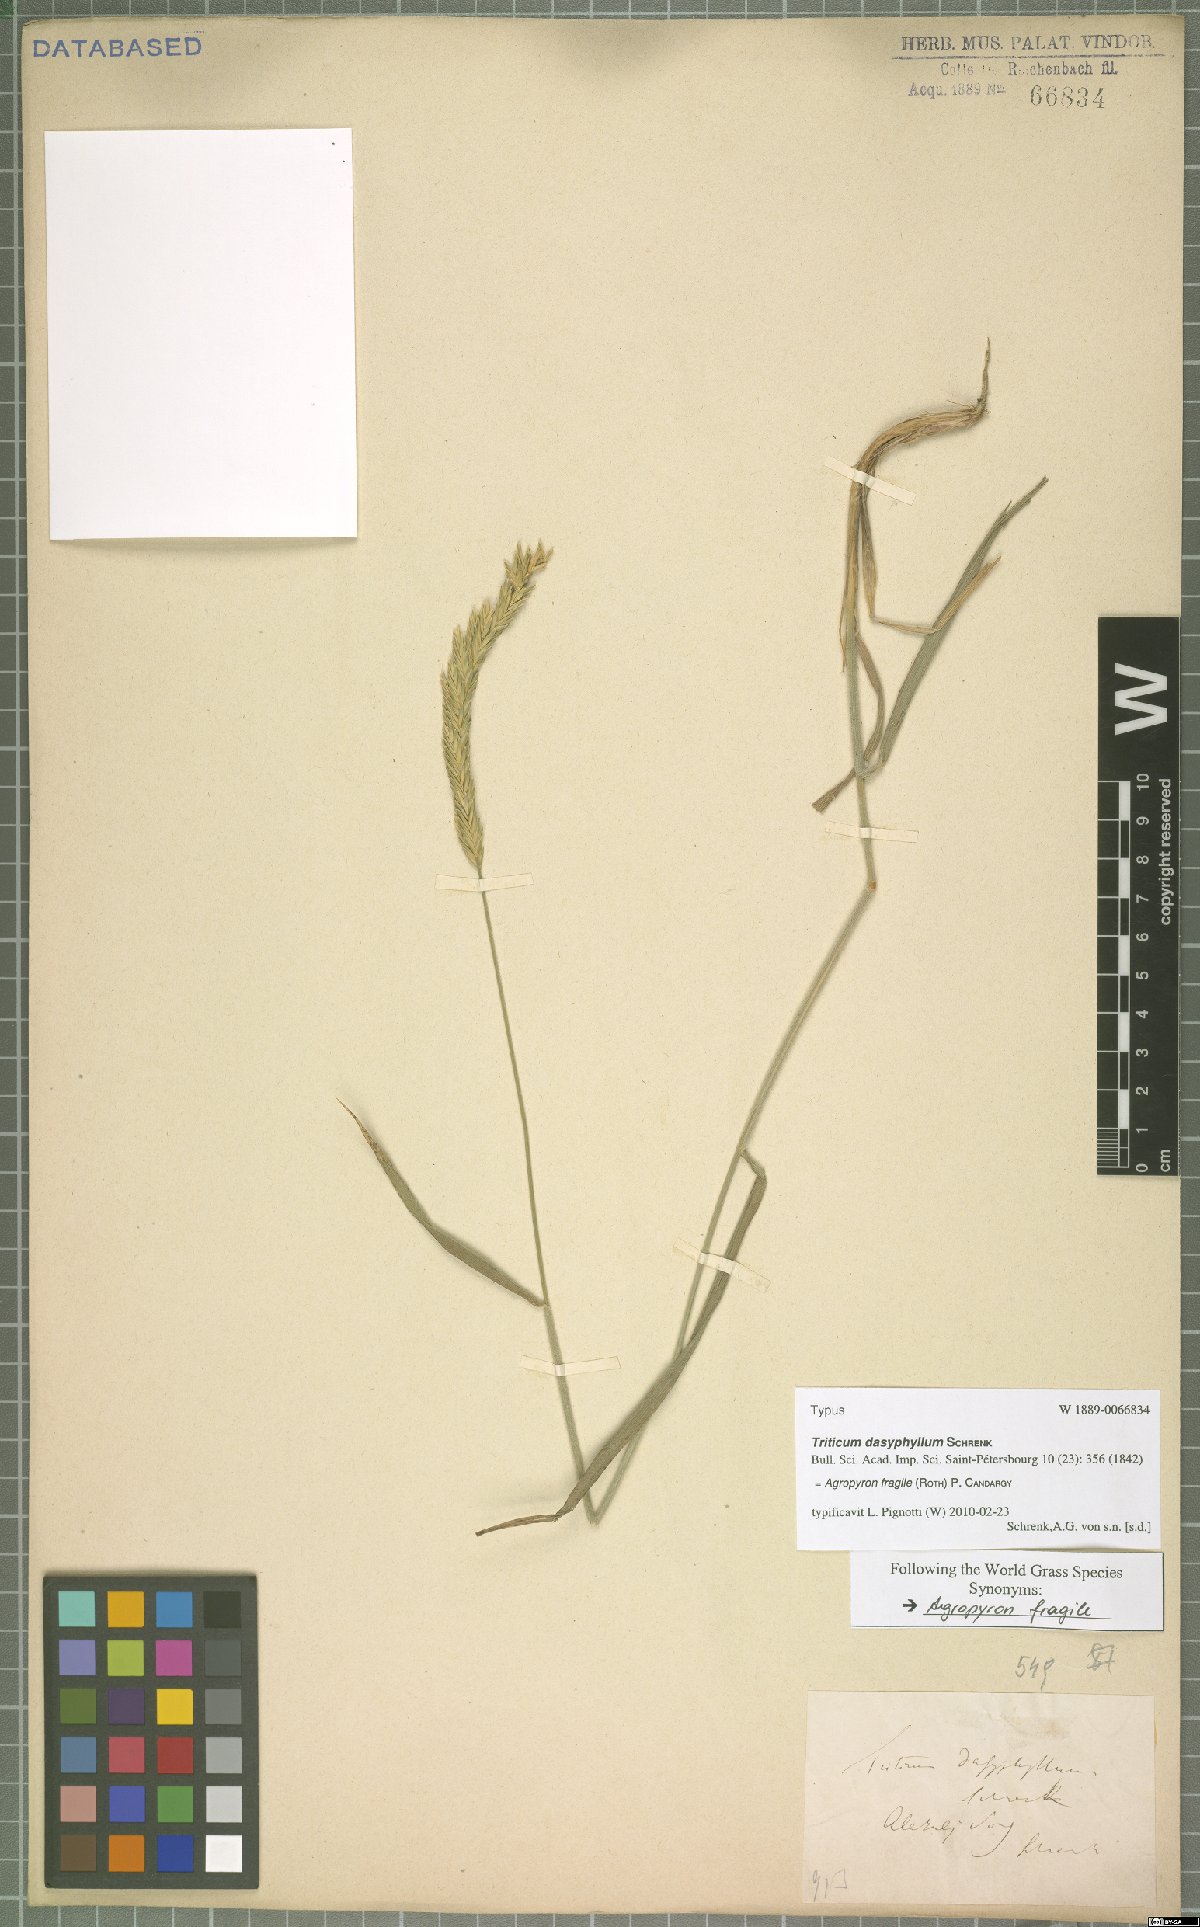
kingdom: Plantae
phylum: Tracheophyta
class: Liliopsida
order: Poales
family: Poaceae
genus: Agropyron
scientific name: Agropyron fragile
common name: Siberian wheatgrass
